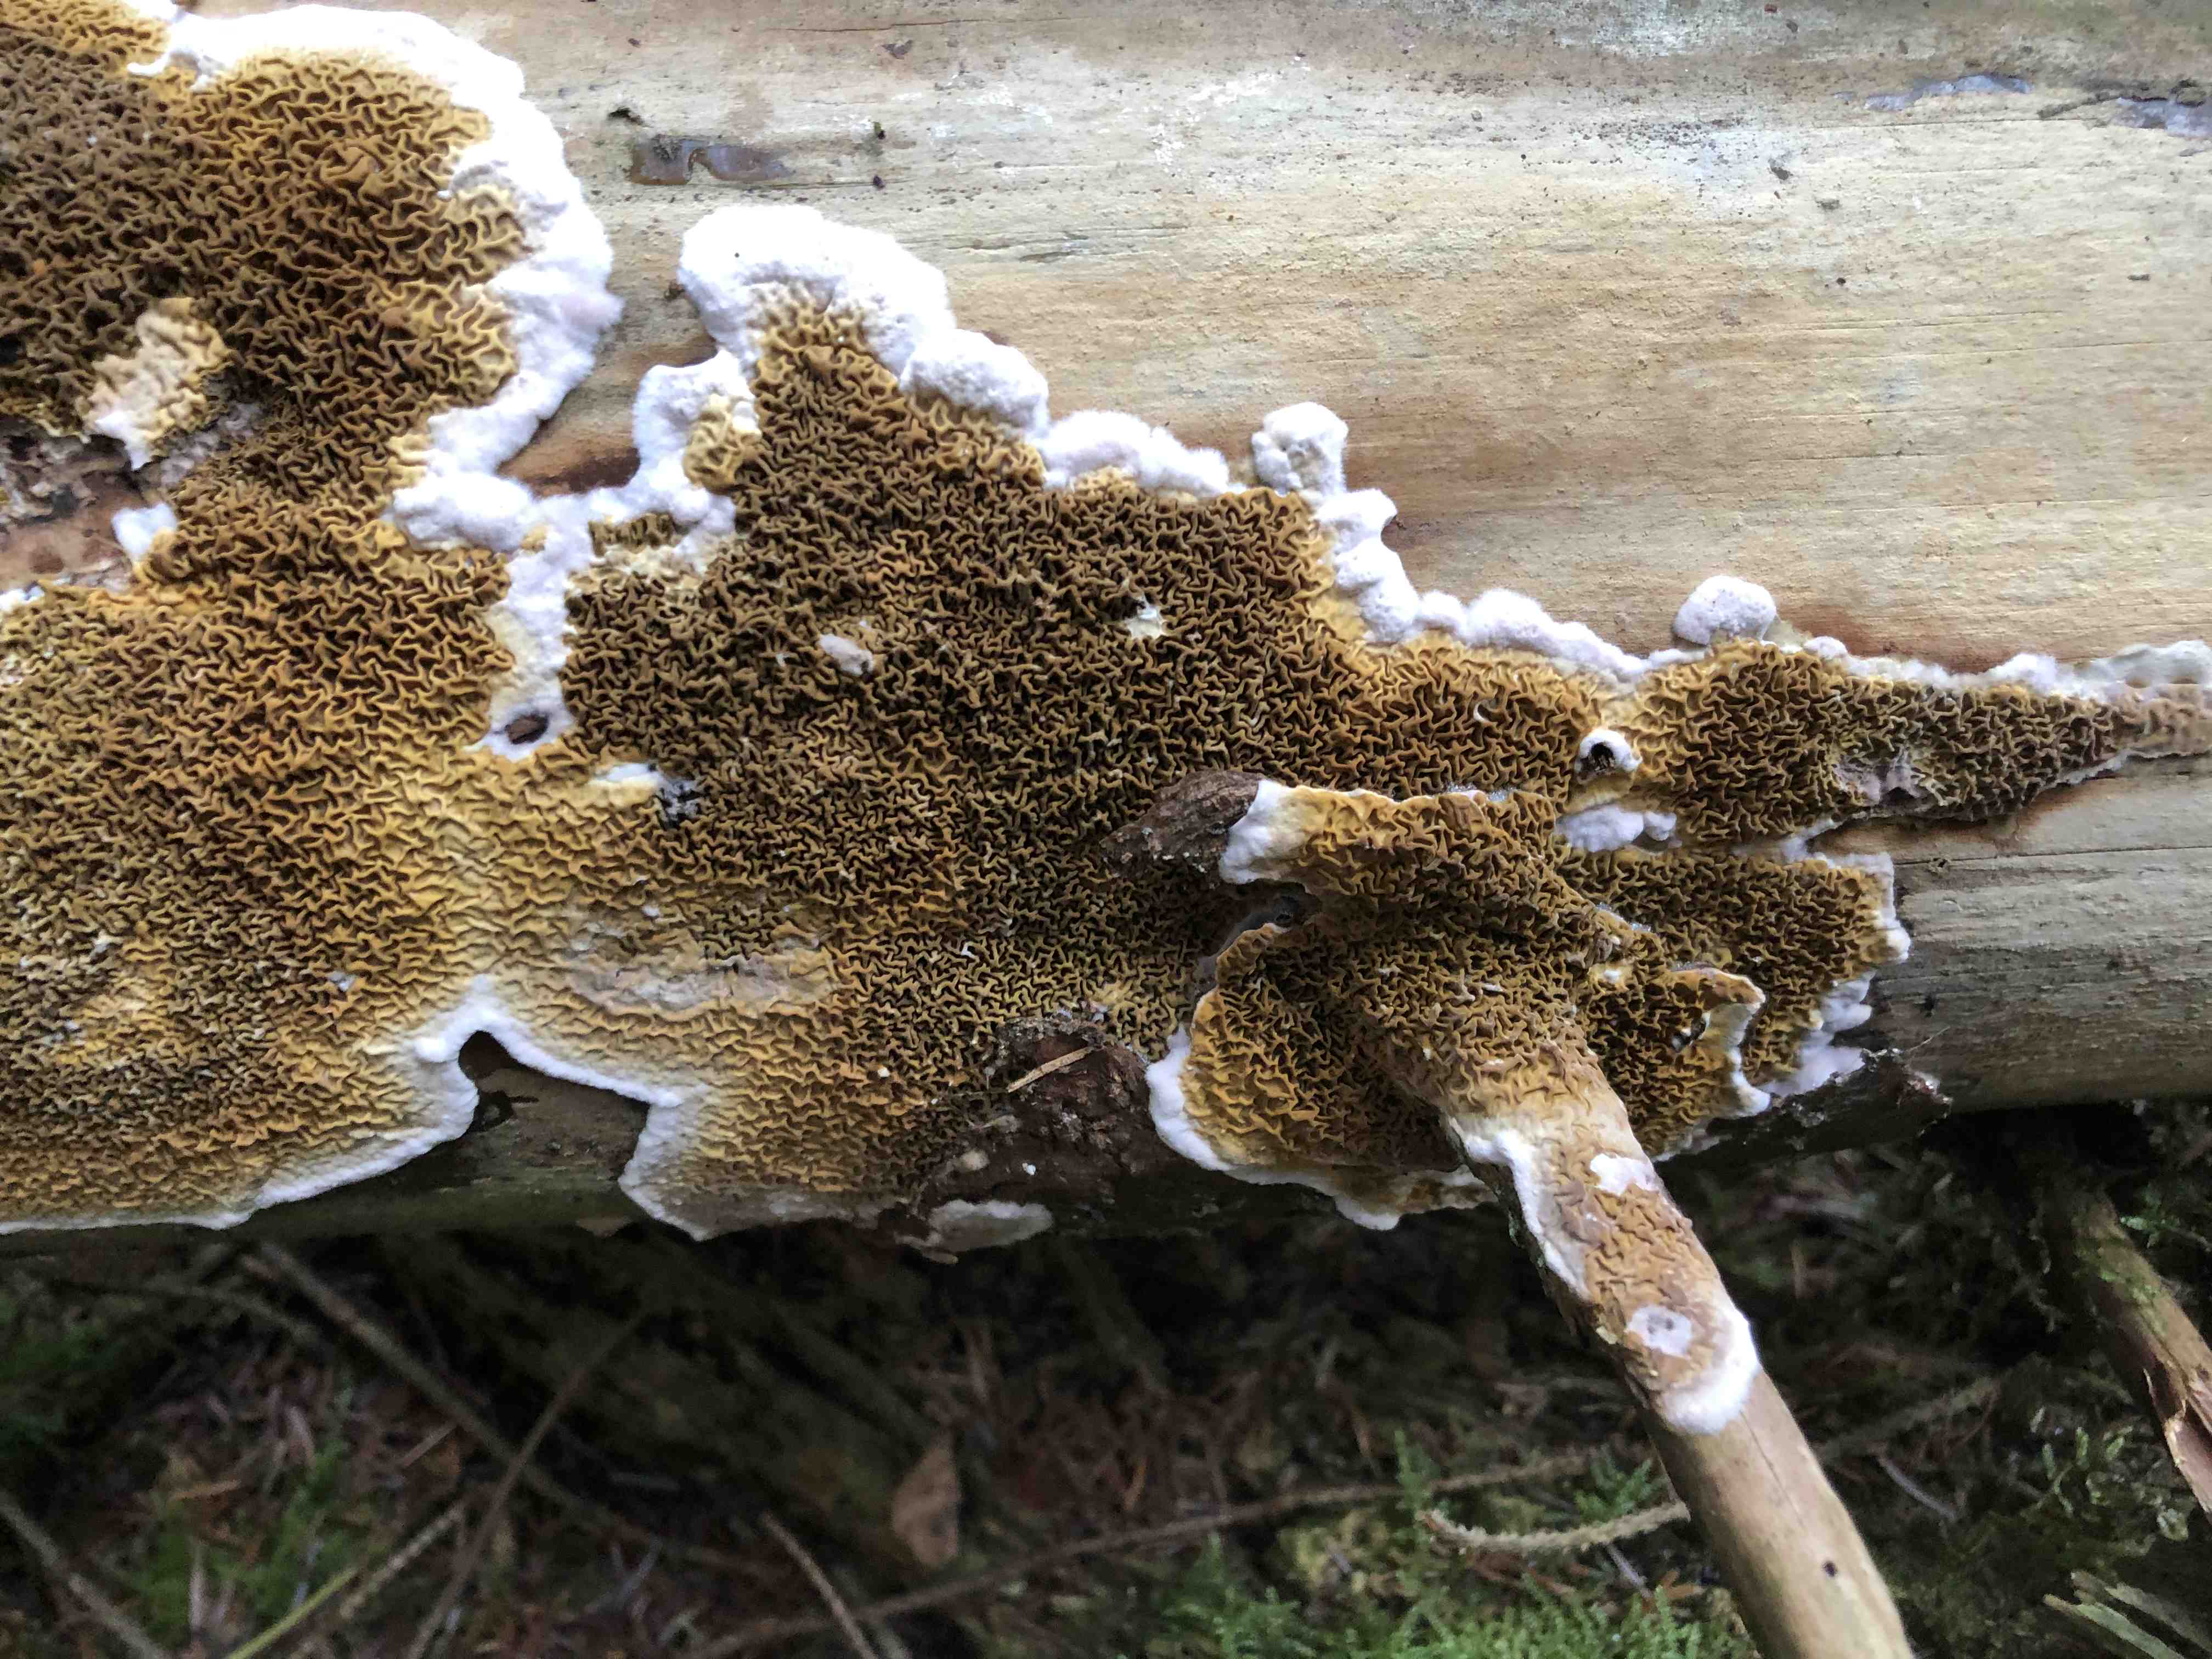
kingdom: Fungi
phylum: Basidiomycota
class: Agaricomycetes
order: Boletales
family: Serpulaceae
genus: Serpula
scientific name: Serpula himantioides
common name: tyndkødet hussvamp
